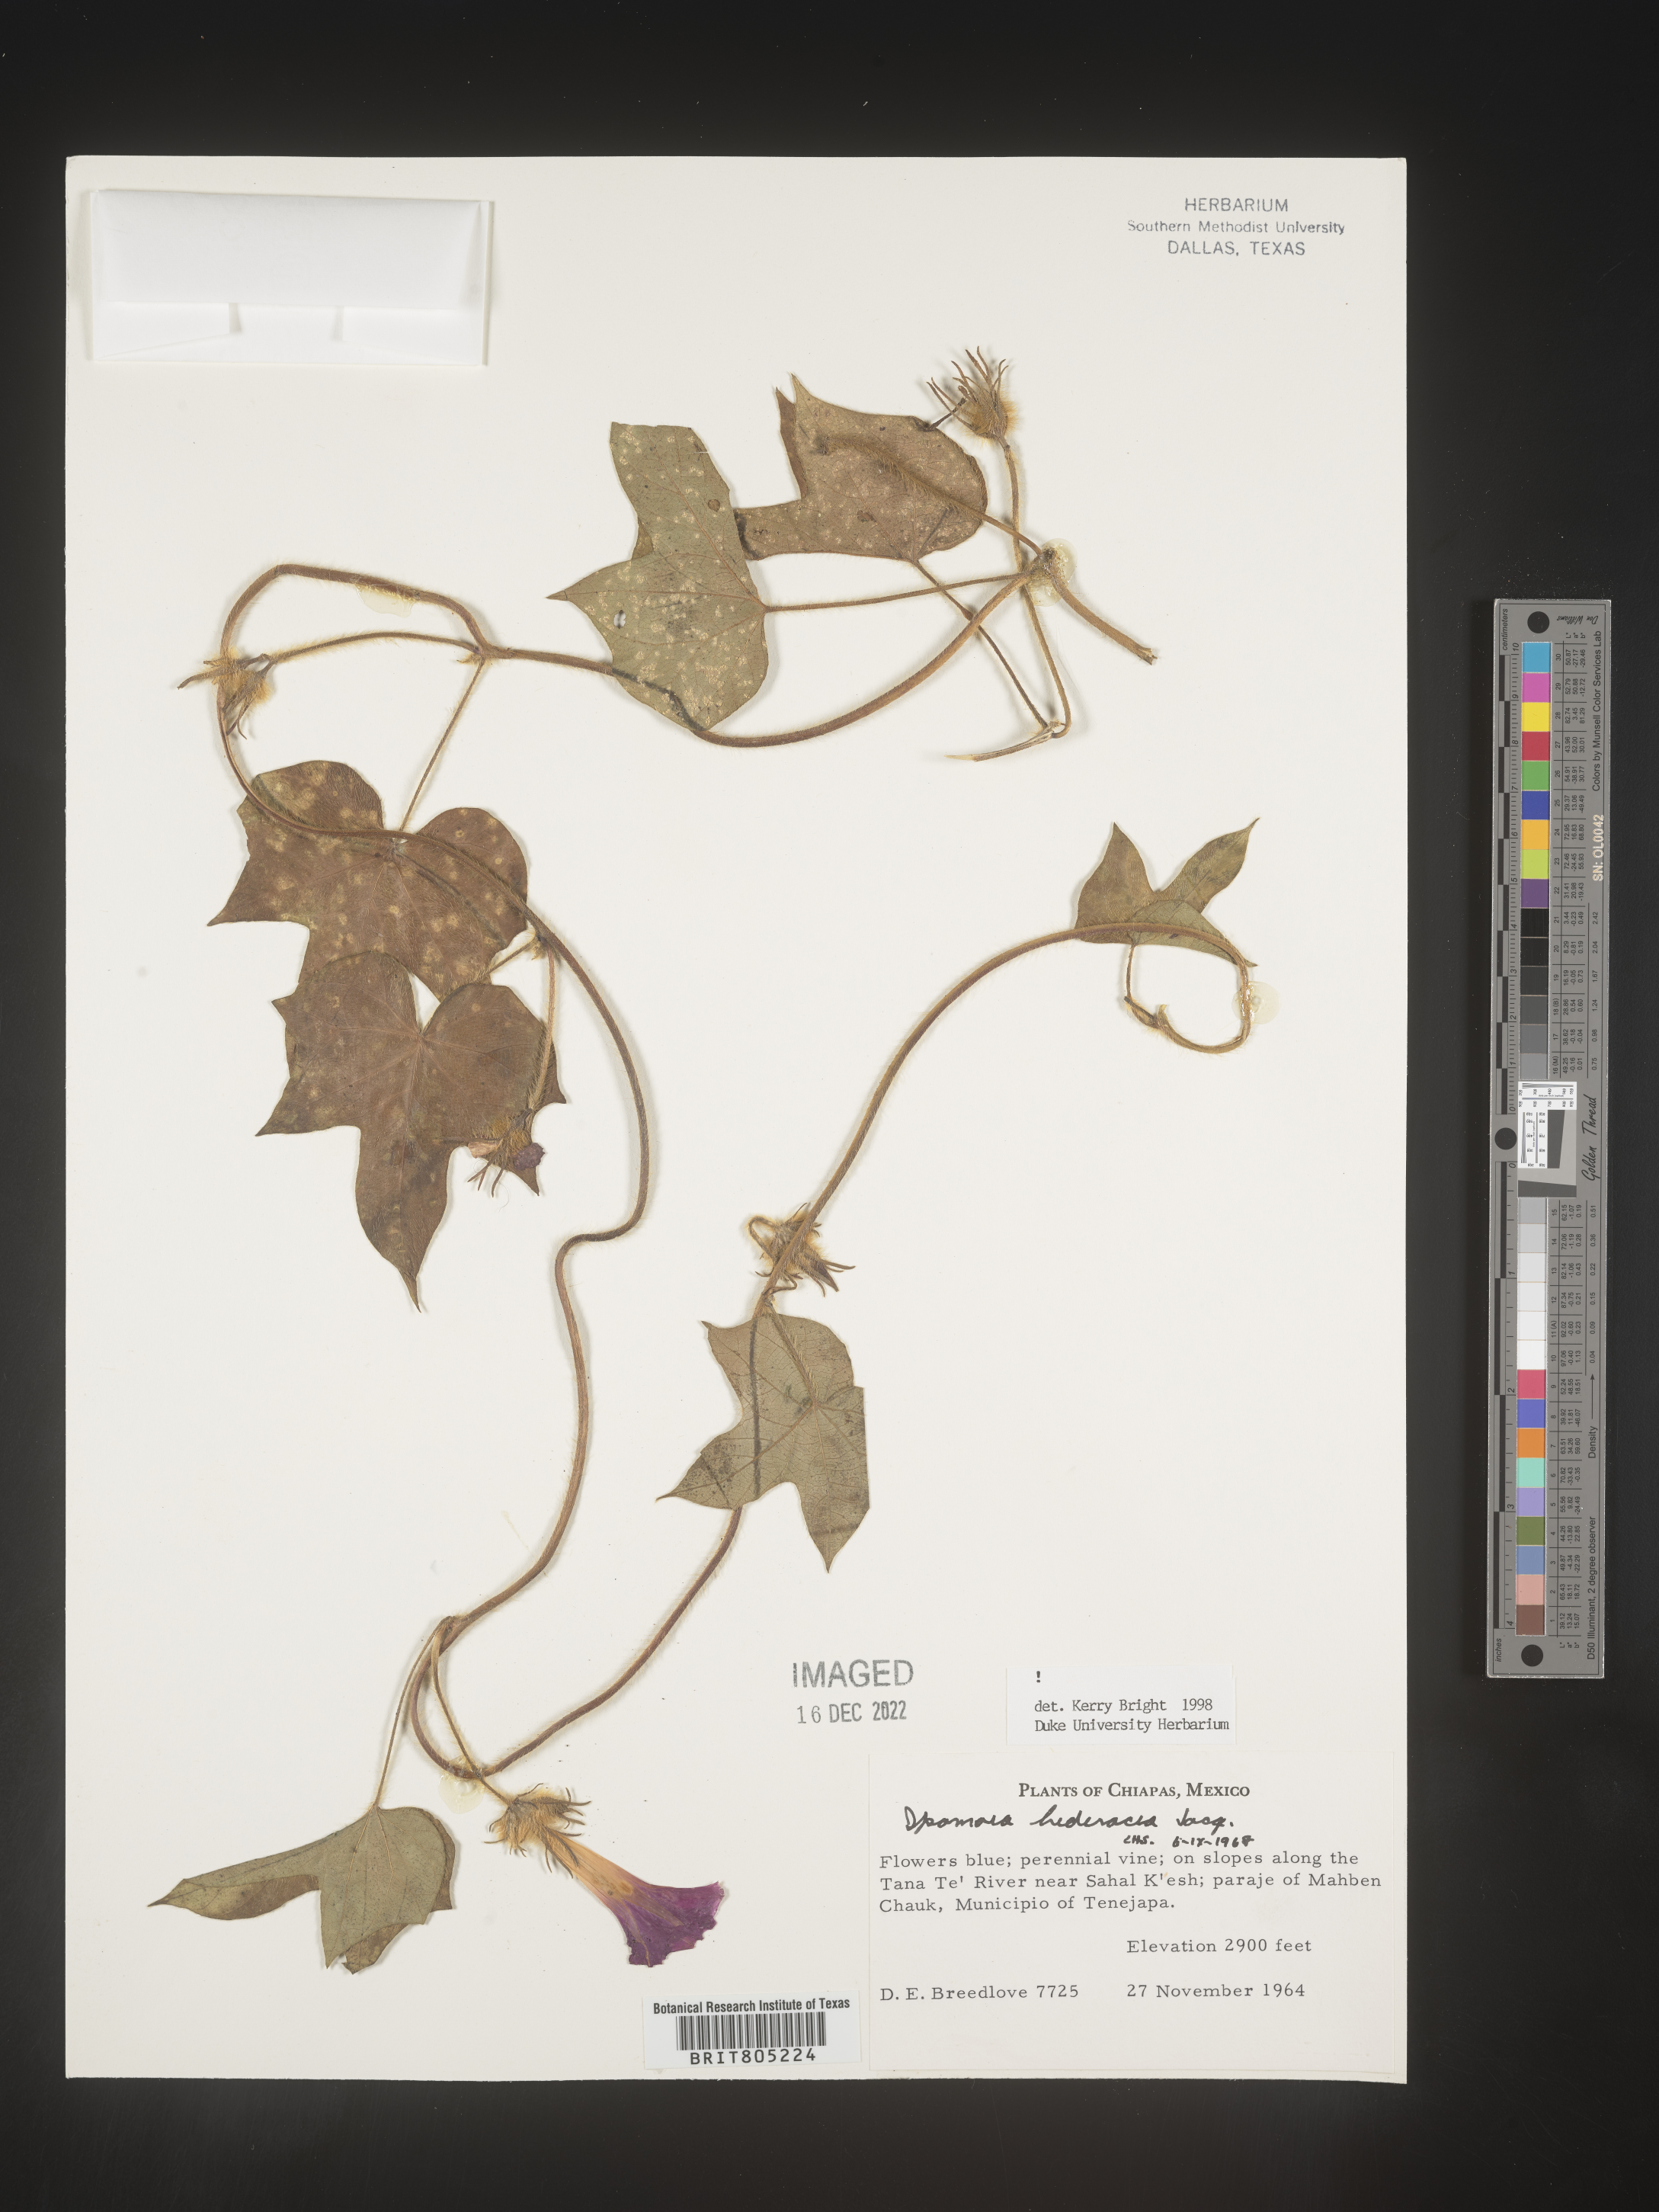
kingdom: Plantae
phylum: Tracheophyta
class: Magnoliopsida
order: Solanales
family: Convolvulaceae
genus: Ipomoea
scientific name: Ipomoea
